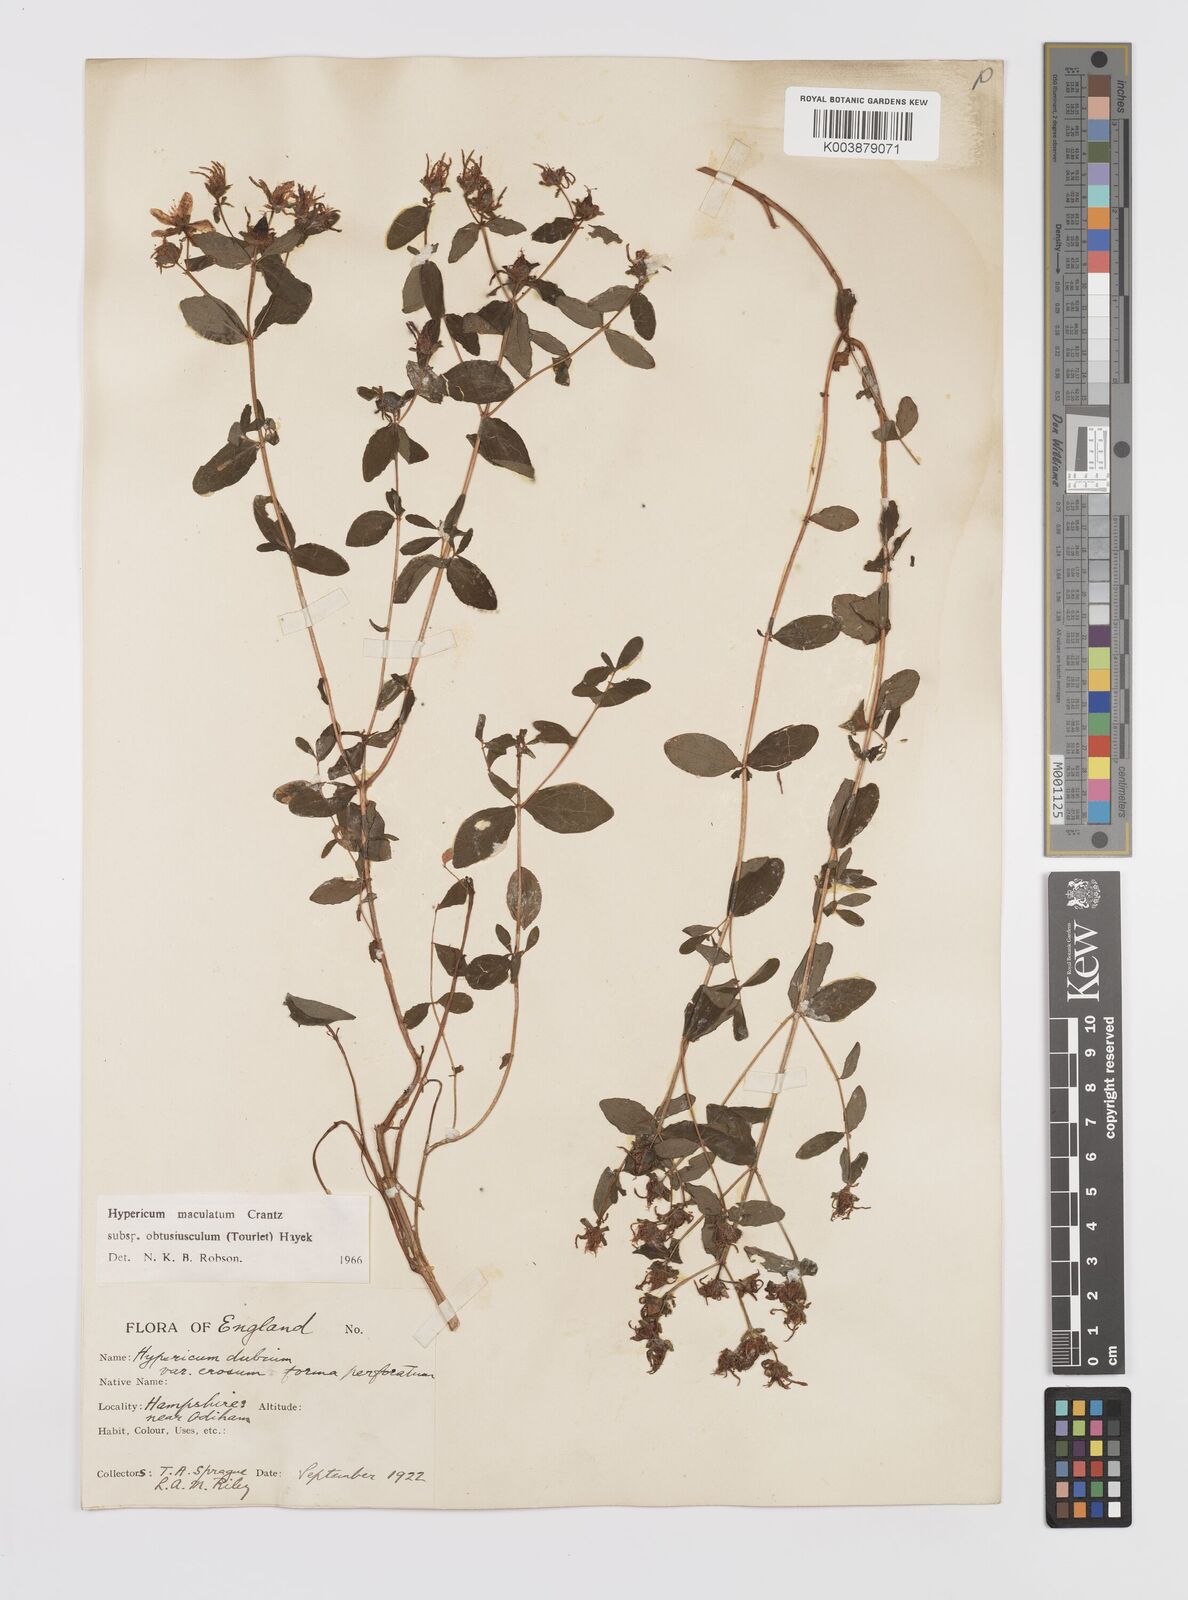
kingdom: Plantae
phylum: Tracheophyta
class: Magnoliopsida
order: Malpighiales
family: Hypericaceae
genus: Hypericum
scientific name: Hypericum dubium
